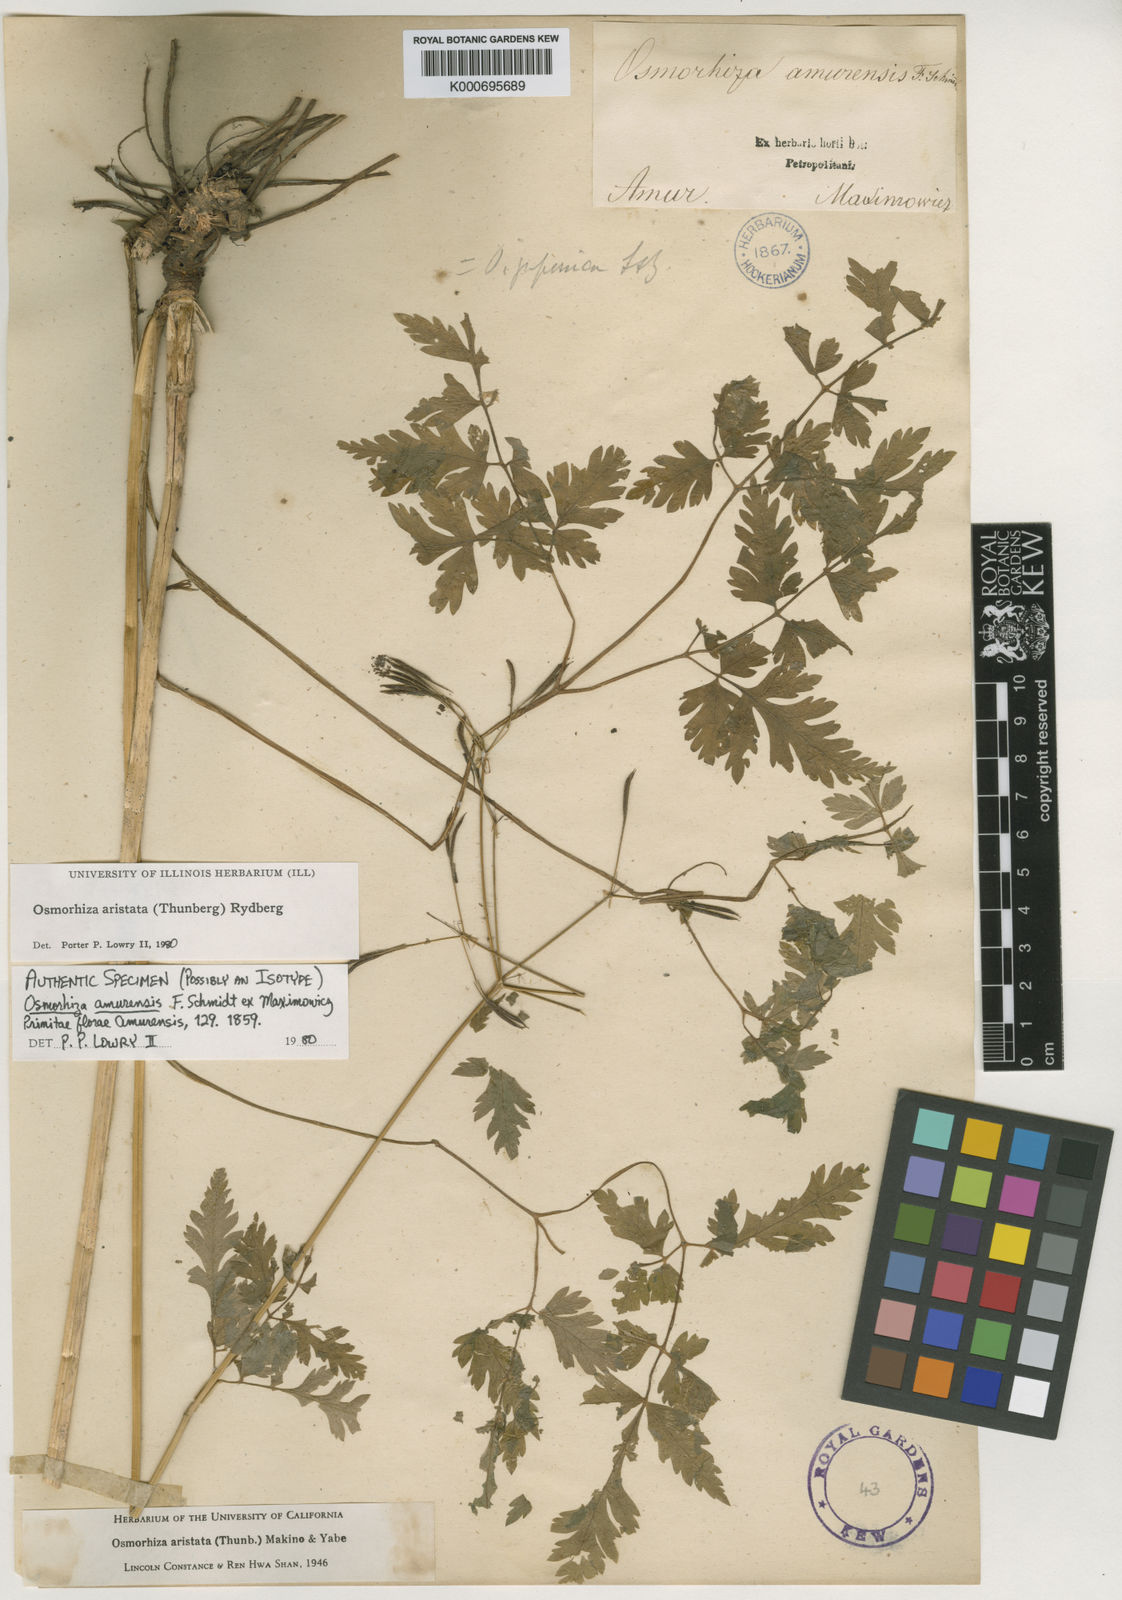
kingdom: Plantae
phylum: Tracheophyta
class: Magnoliopsida
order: Apiales
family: Apiaceae
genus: Osmorhiza
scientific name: Osmorhiza aristata
